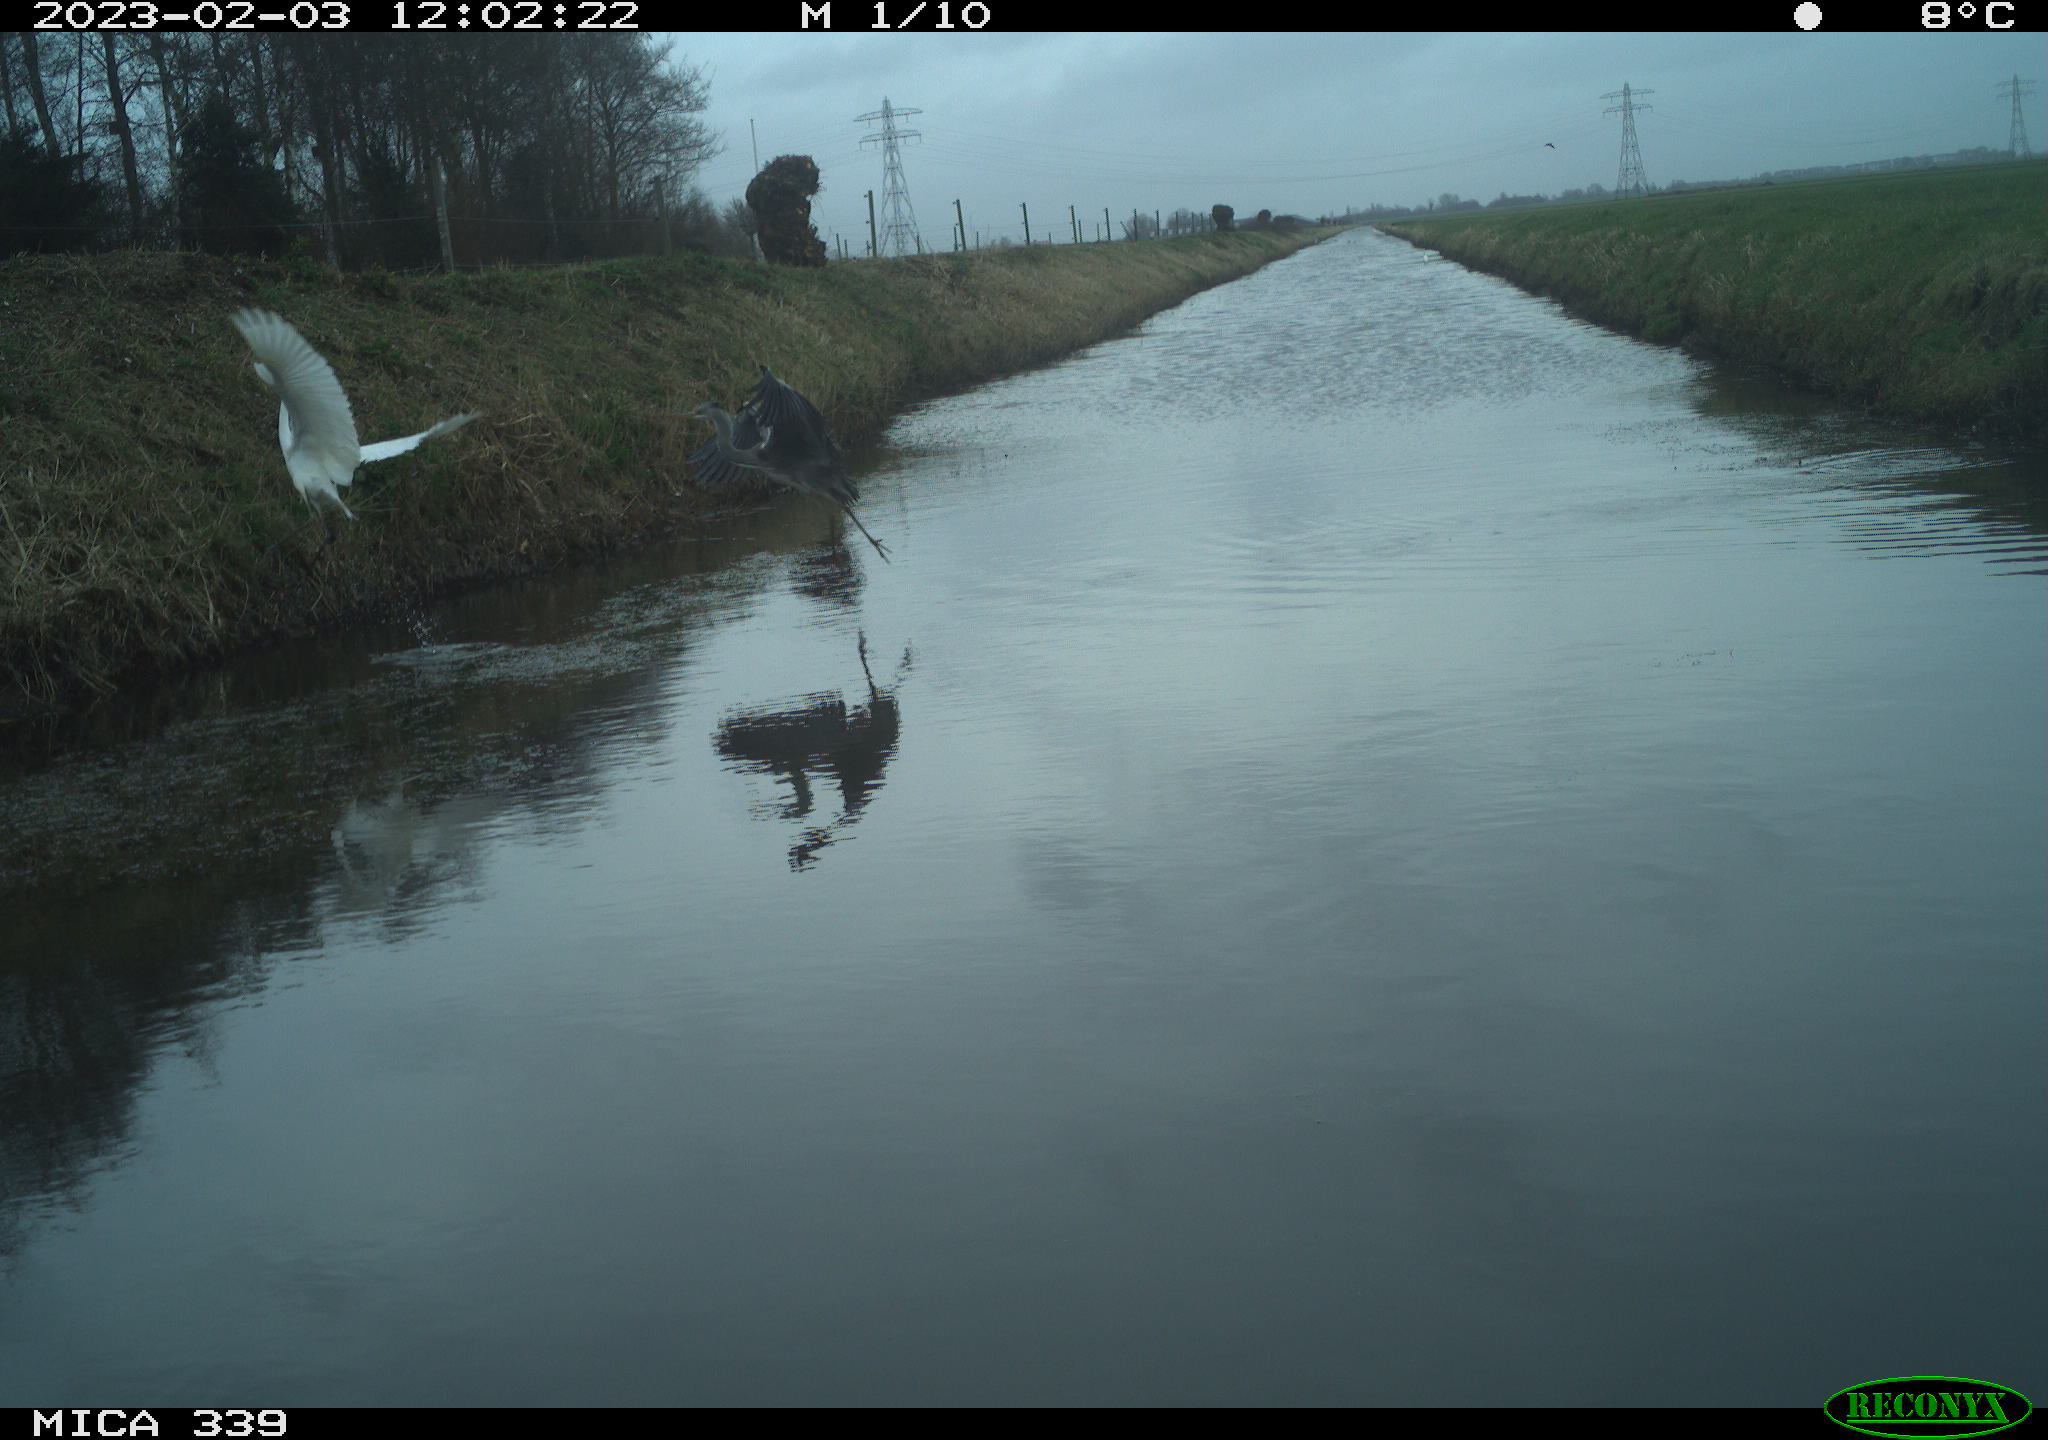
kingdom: Animalia
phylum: Chordata
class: Aves
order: Pelecaniformes
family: Ardeidae
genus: Ardea
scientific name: Ardea cinerea
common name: Grey heron
